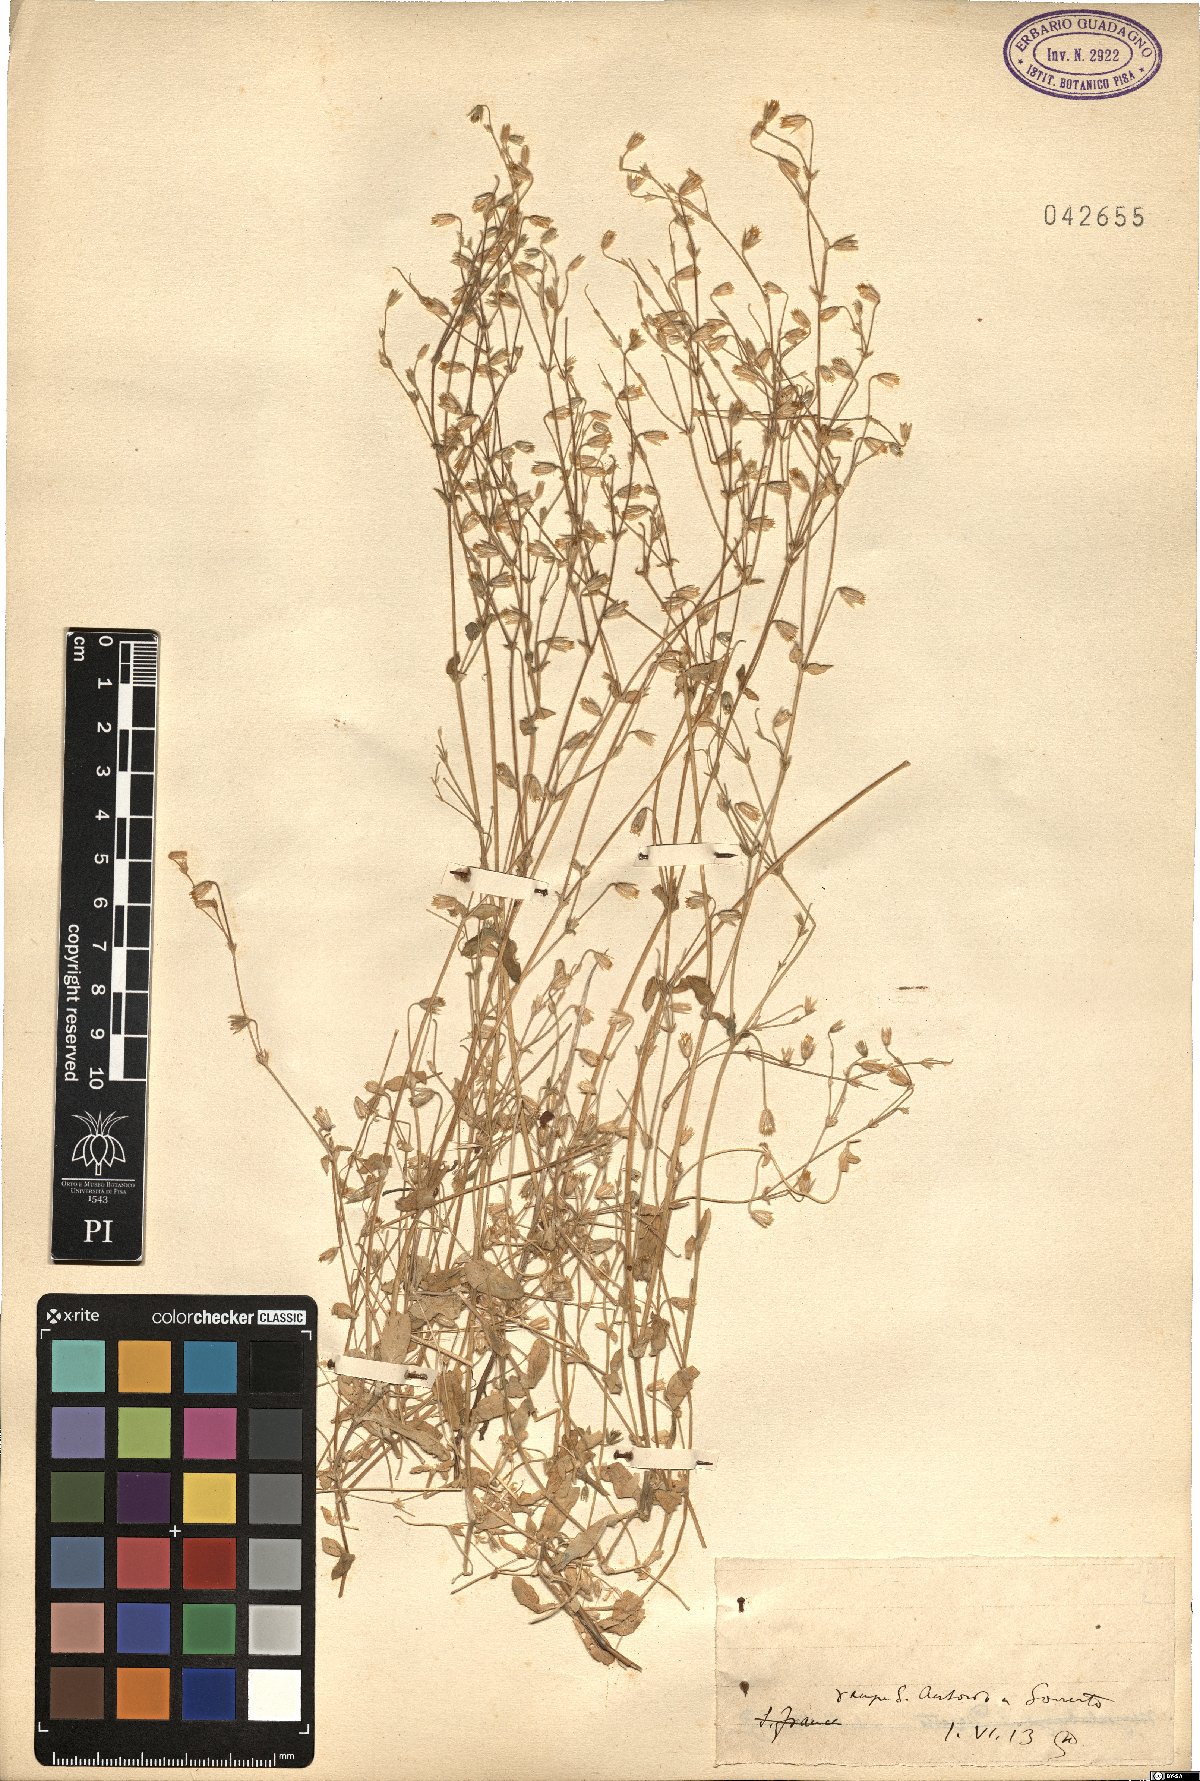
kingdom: Plantae
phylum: Tracheophyta
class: Magnoliopsida
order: Caryophyllales
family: Caryophyllaceae
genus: Cerastium
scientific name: Cerastium
